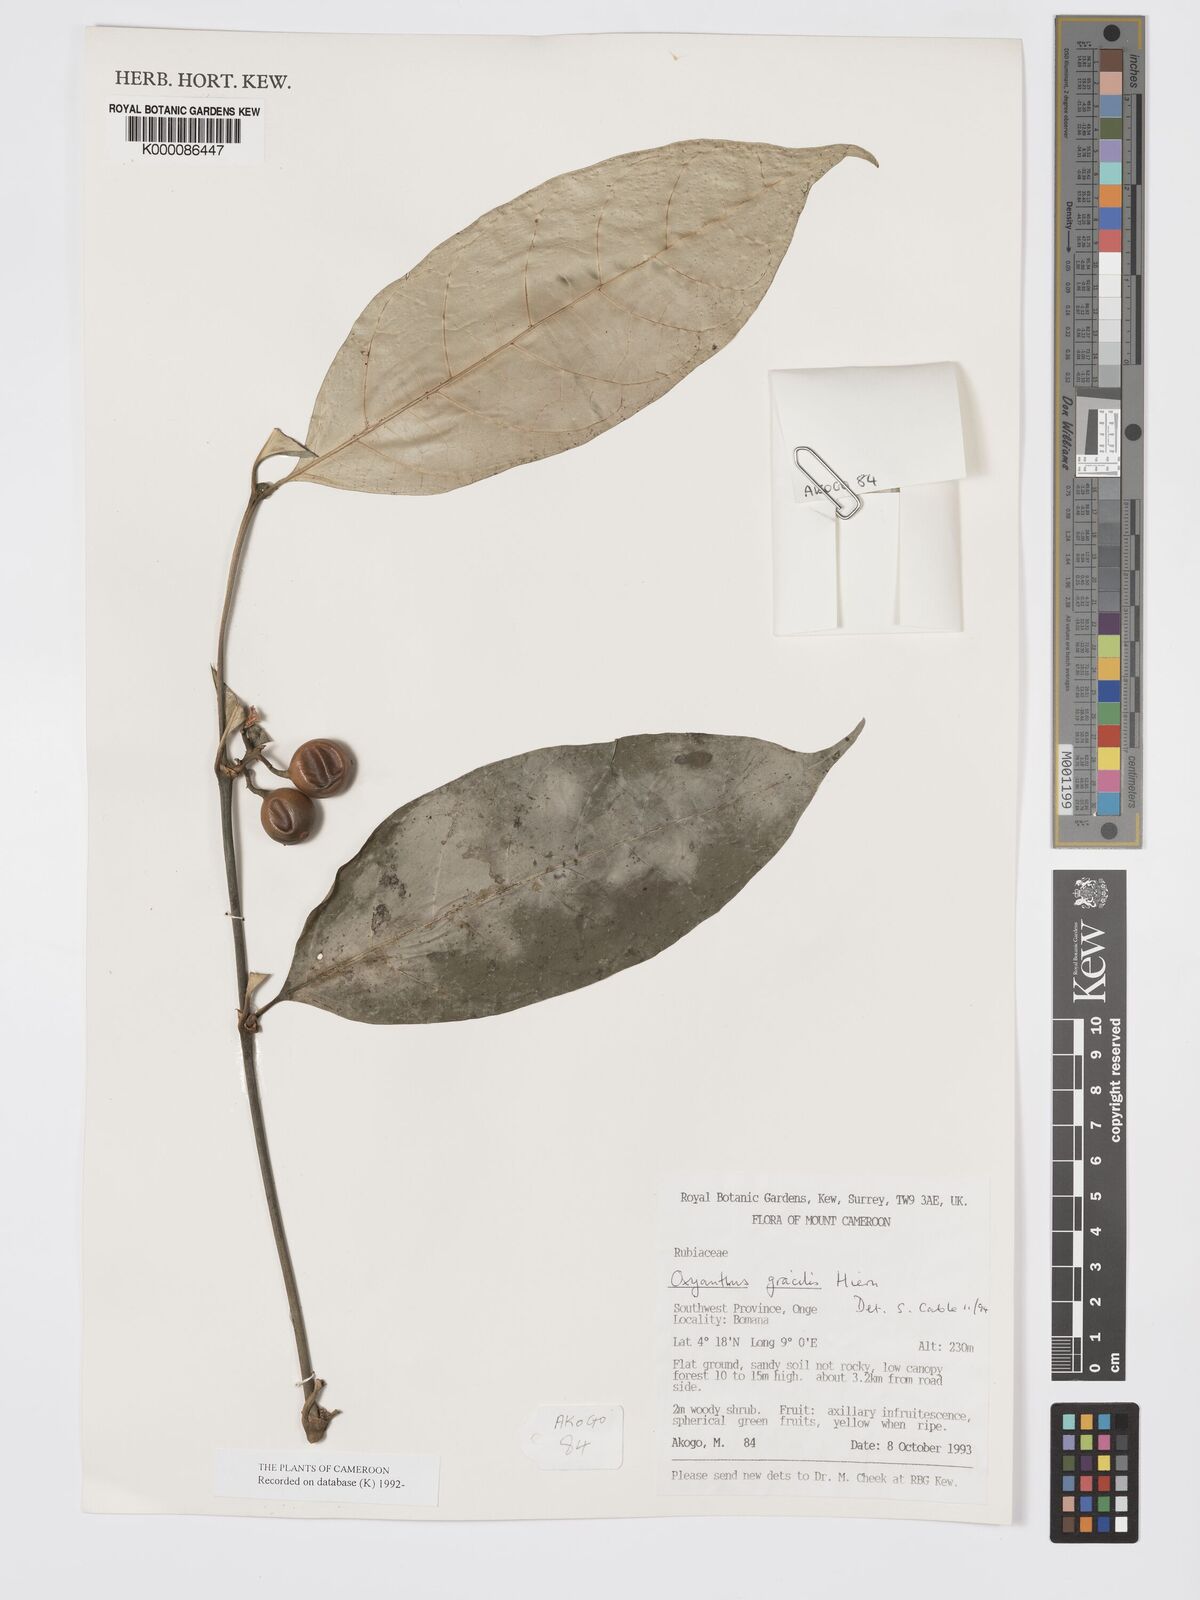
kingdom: Plantae
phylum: Tracheophyta
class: Magnoliopsida
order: Gentianales
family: Rubiaceae
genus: Oxyanthus
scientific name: Oxyanthus gracilis
